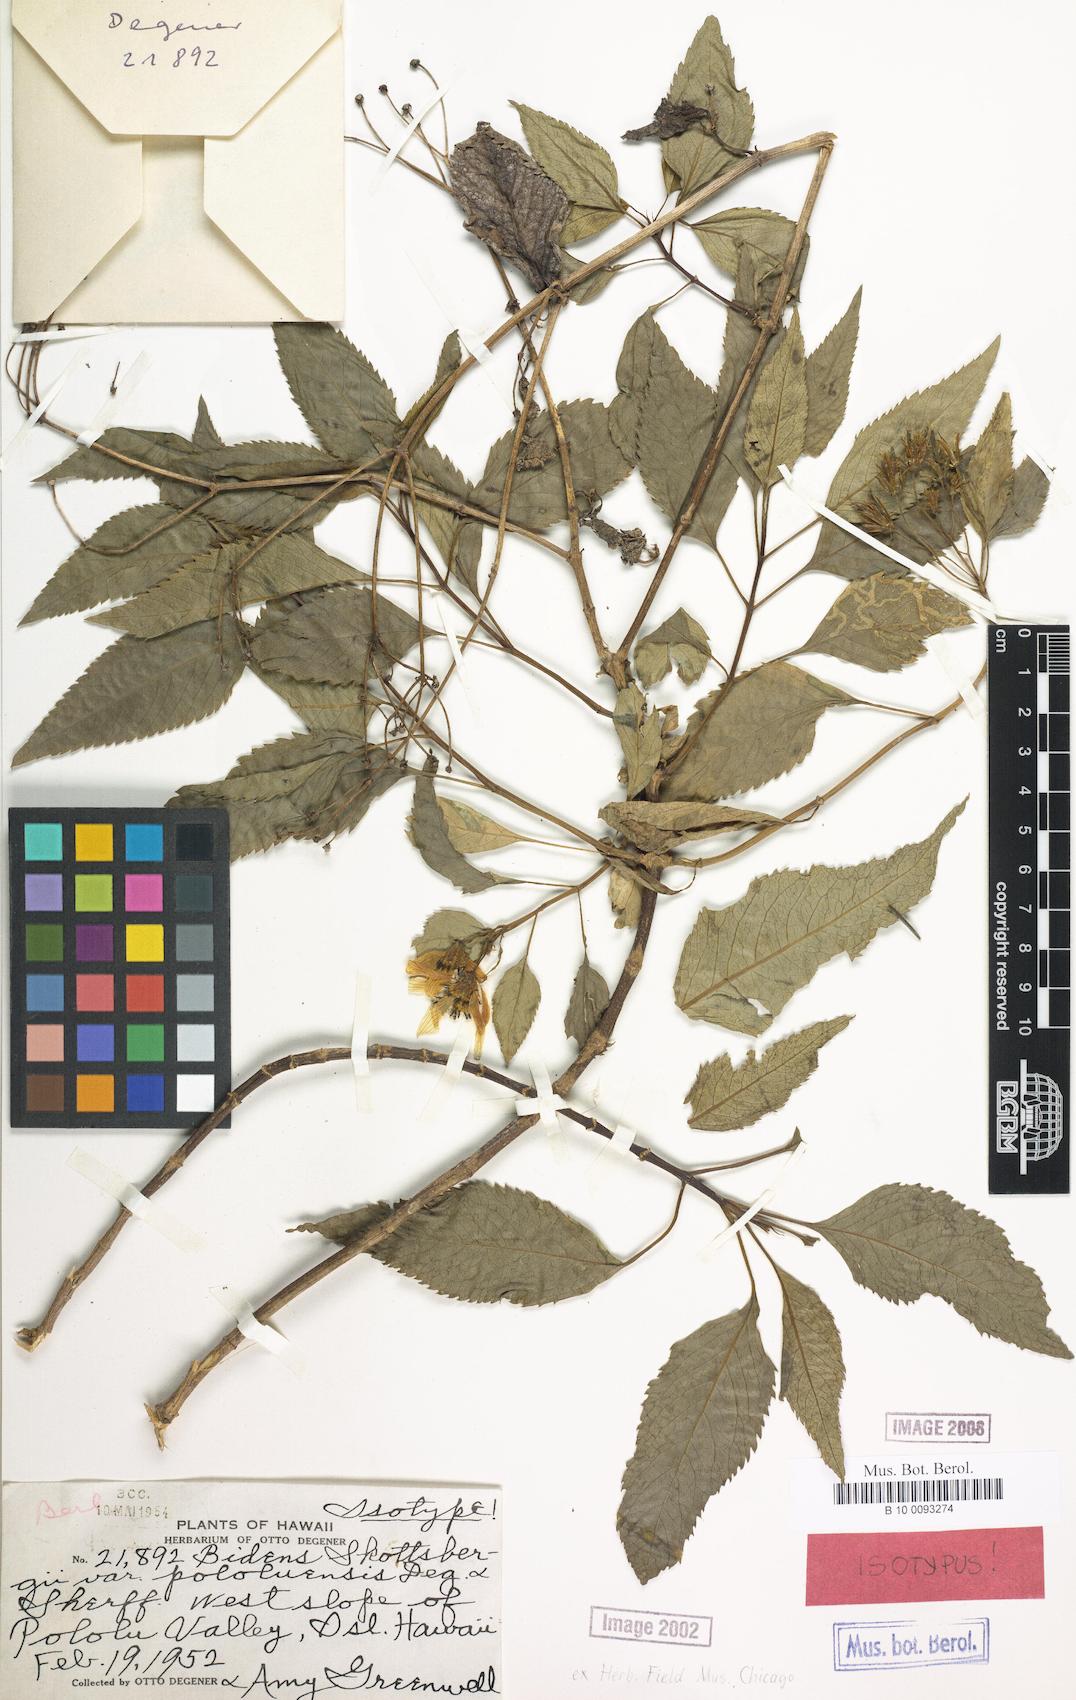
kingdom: Plantae
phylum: Tracheophyta
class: Magnoliopsida
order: Asterales
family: Asteraceae
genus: Bidens
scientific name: Bidens hawaiensis
